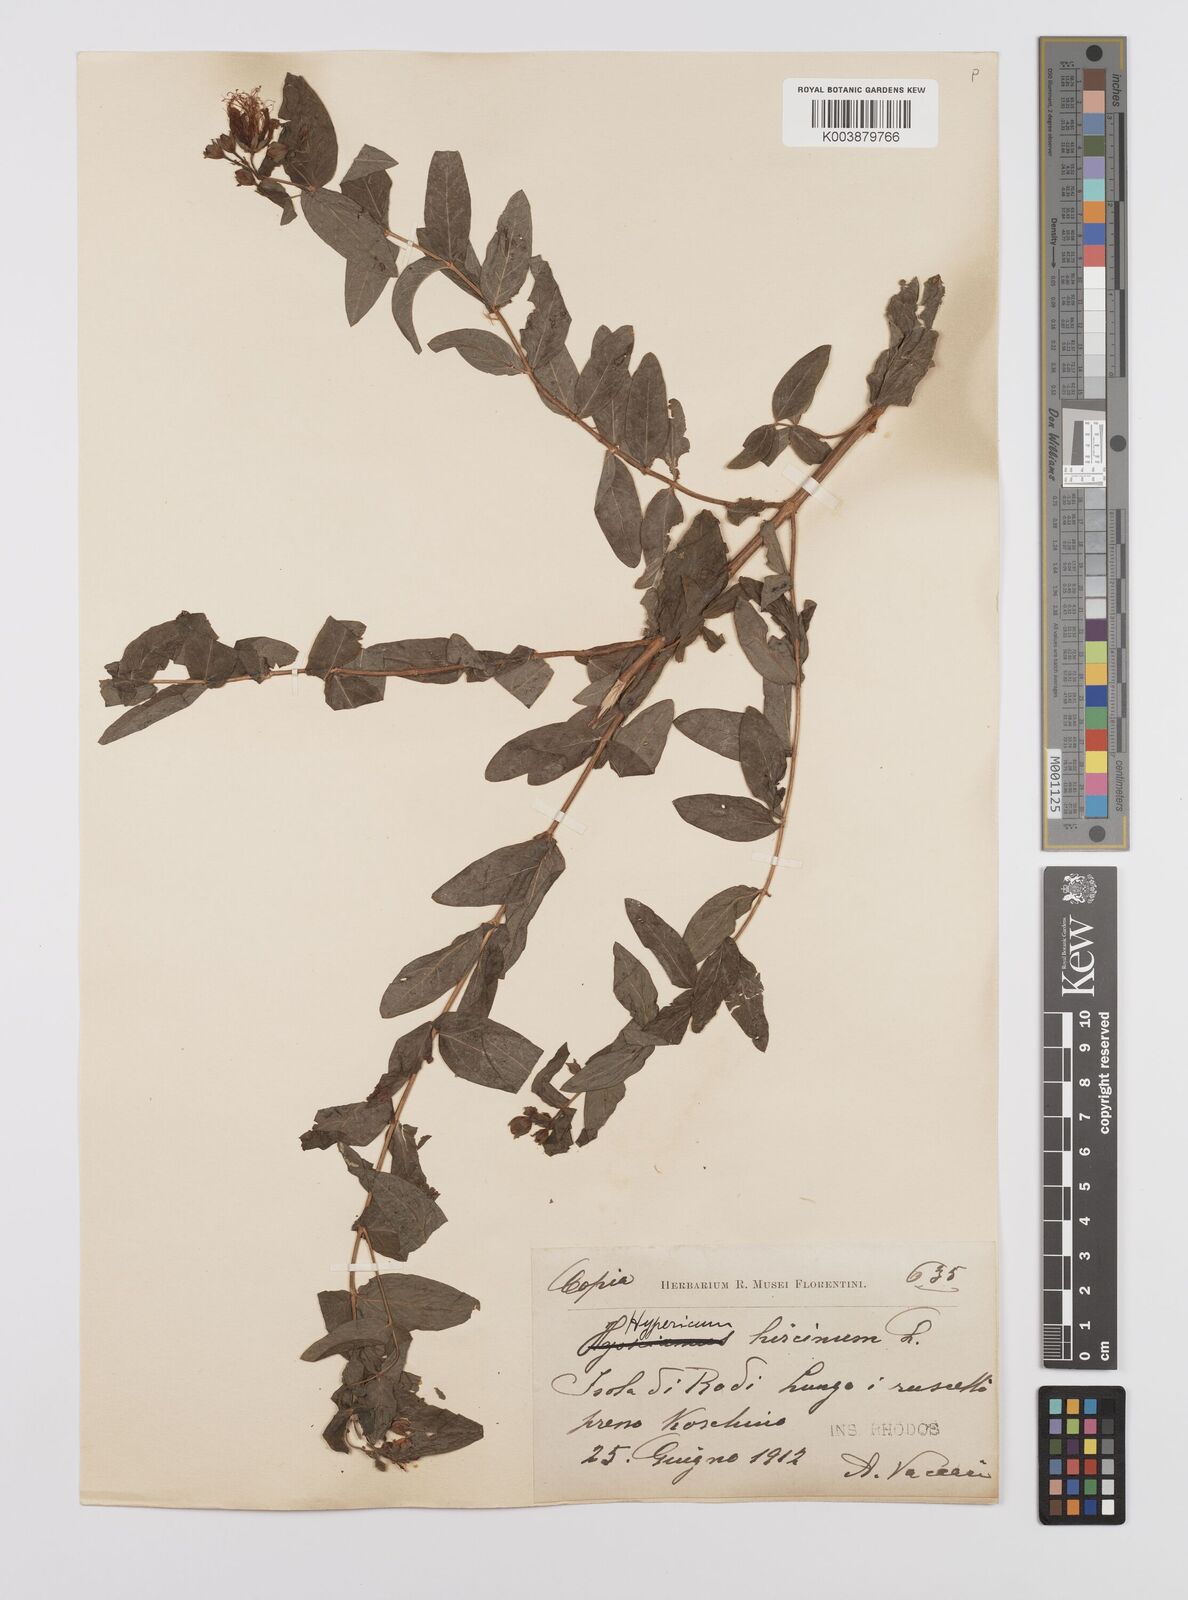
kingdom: Plantae
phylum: Tracheophyta
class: Magnoliopsida
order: Malpighiales
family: Hypericaceae
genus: Hypericum
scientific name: Hypericum hircinum
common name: Stinking tutsan
